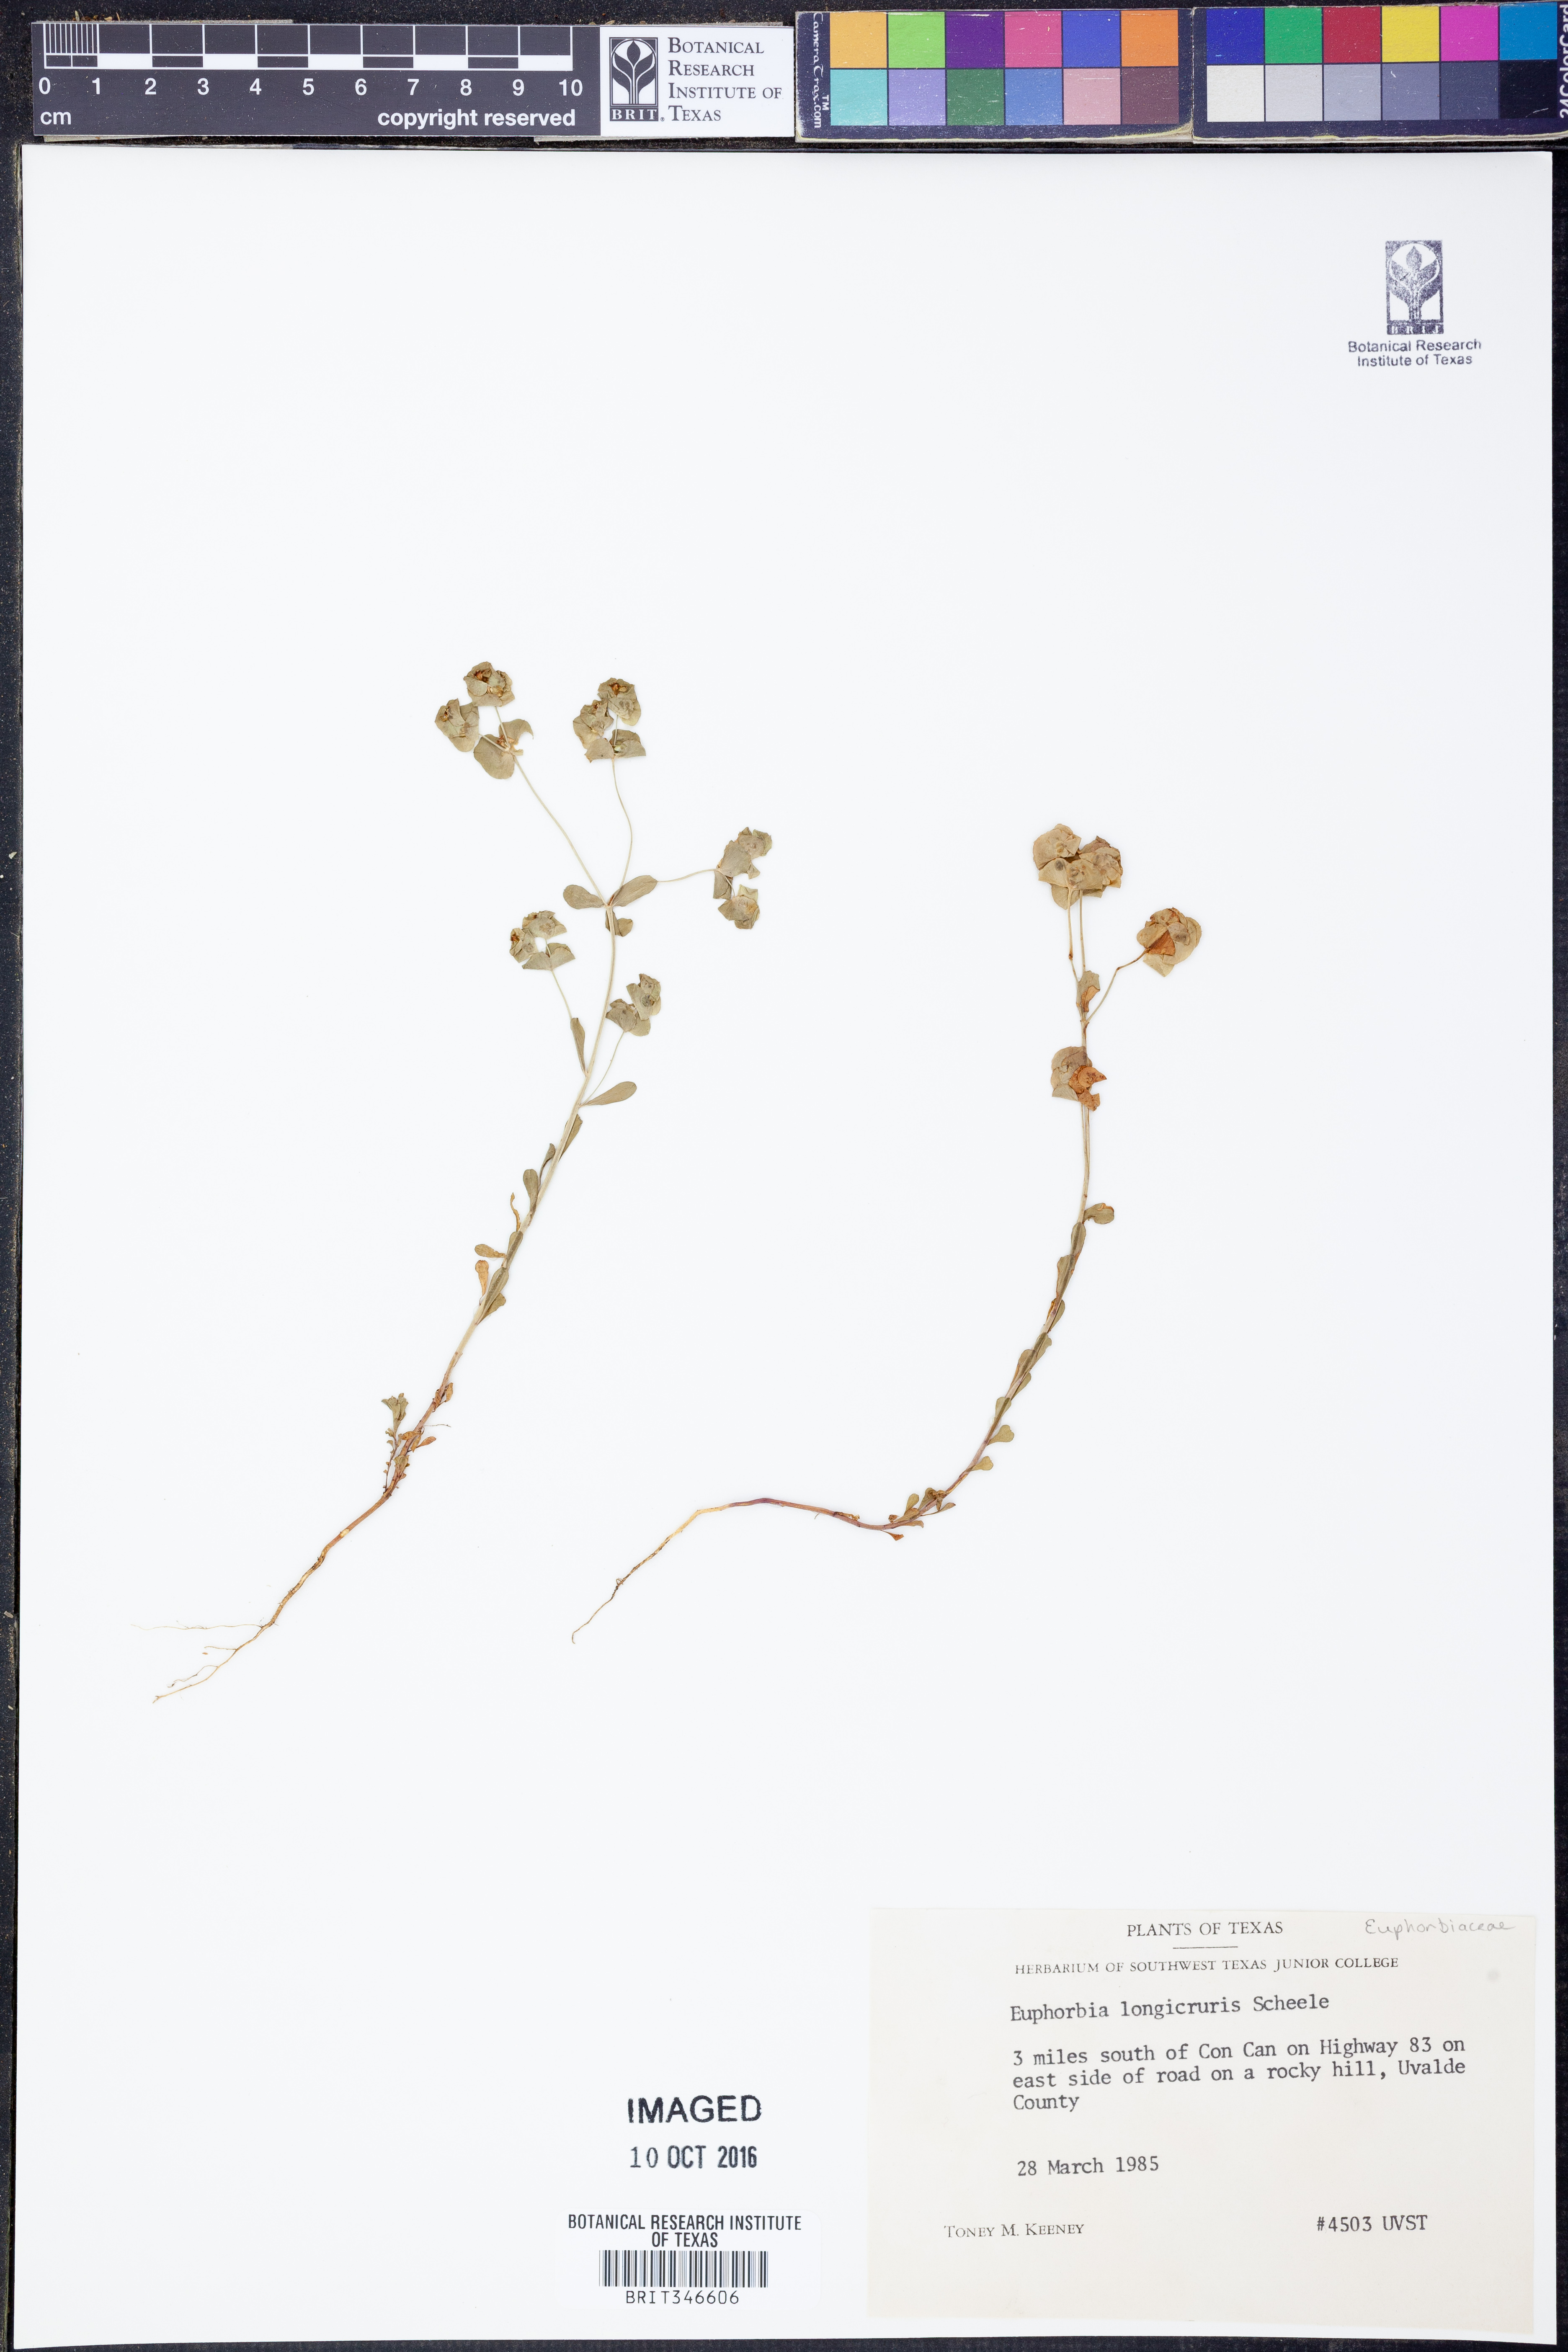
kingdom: Plantae
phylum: Tracheophyta
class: Magnoliopsida
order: Malpighiales
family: Euphorbiaceae
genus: Euphorbia
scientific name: Euphorbia longicruris
